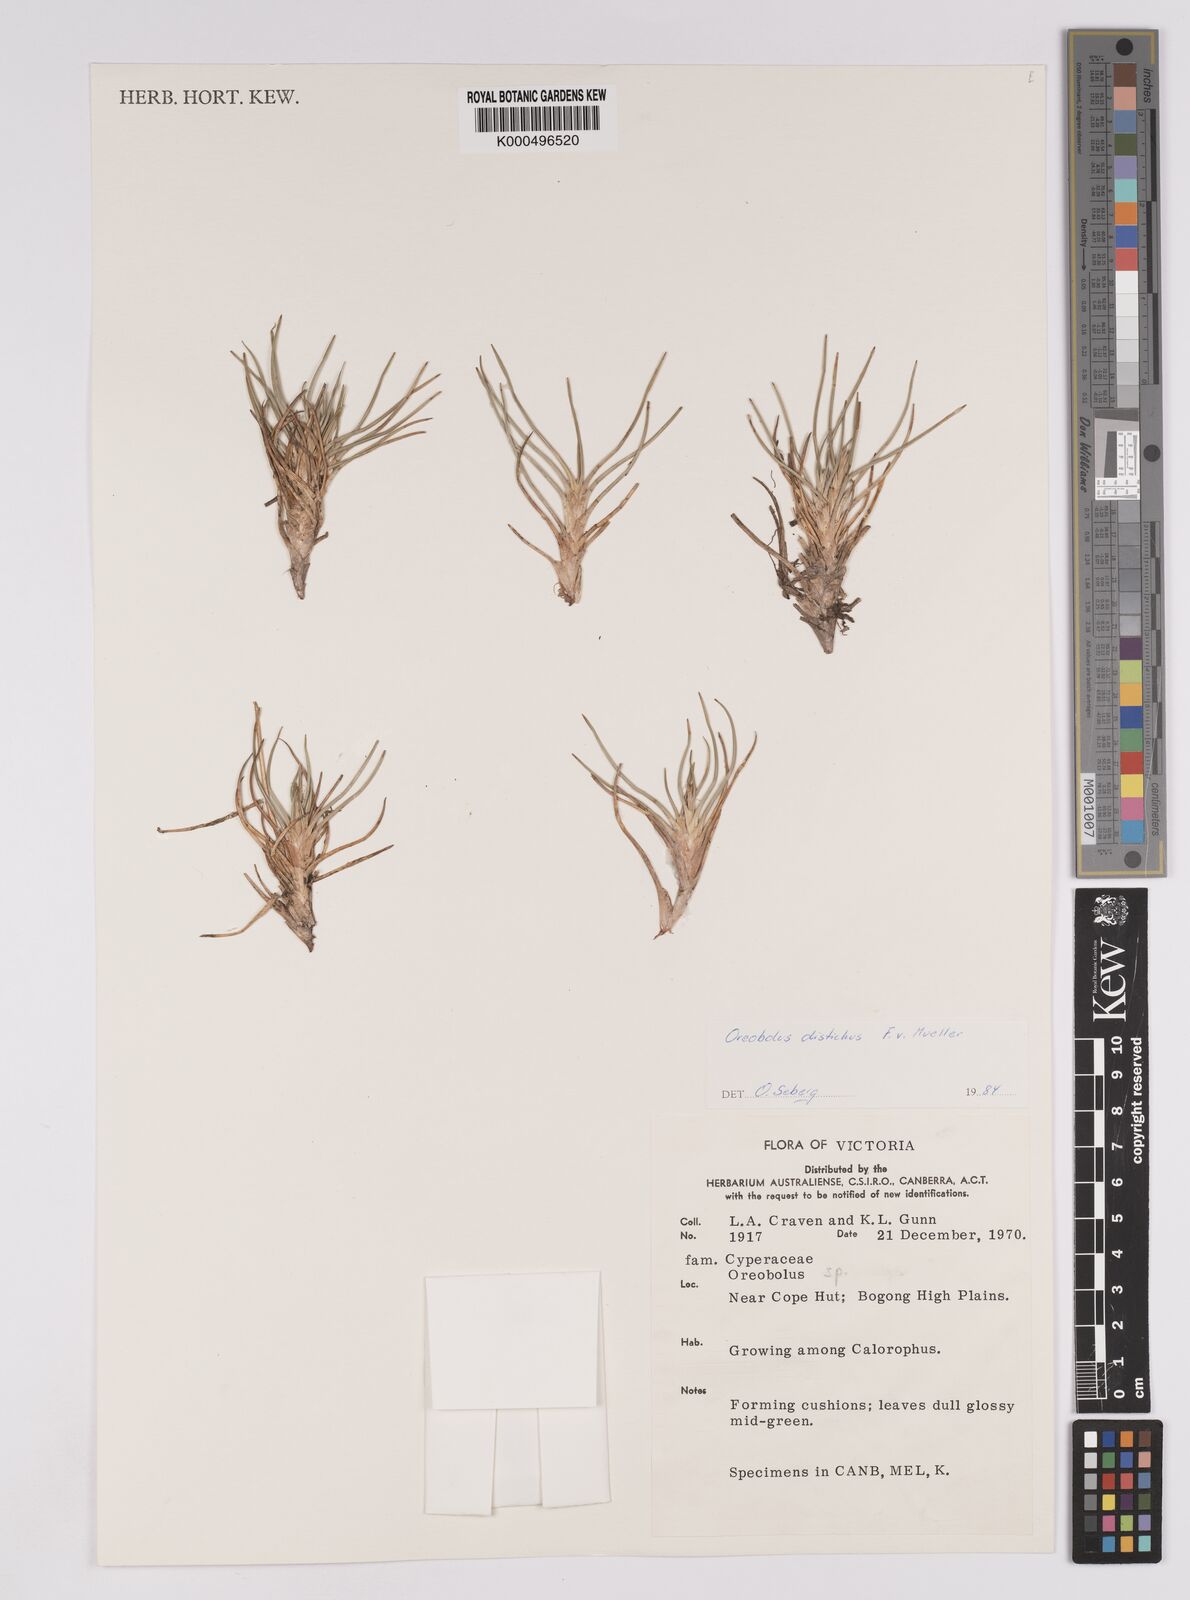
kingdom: Plantae
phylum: Tracheophyta
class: Liliopsida
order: Poales
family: Cyperaceae
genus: Oreobolus
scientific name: Oreobolus
